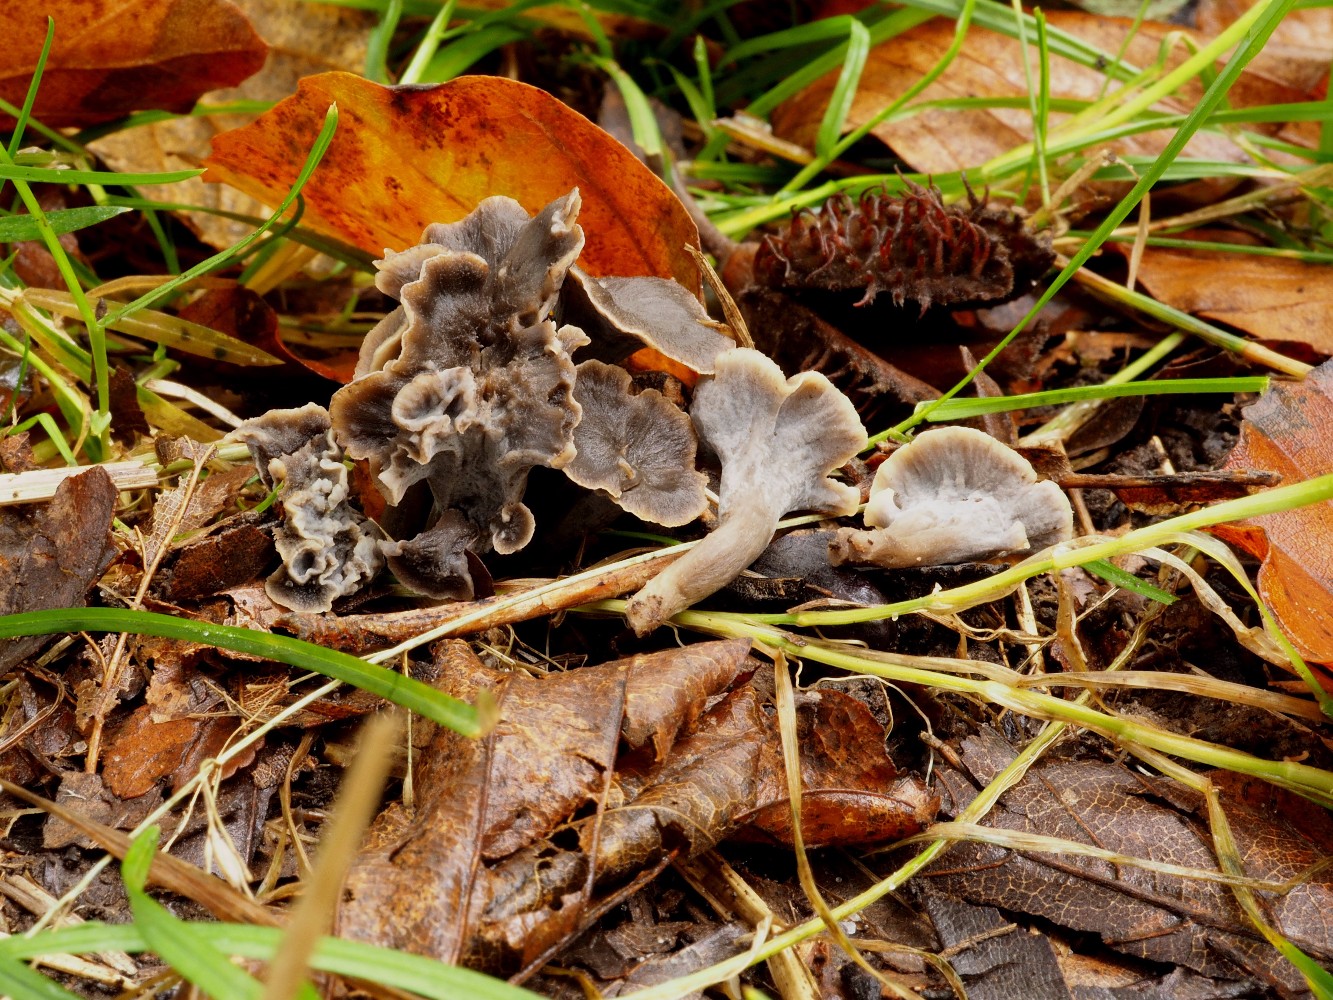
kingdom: Fungi
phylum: Basidiomycota
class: Agaricomycetes
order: Cantharellales
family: Hydnaceae
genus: Craterellus
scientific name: Craterellus undulatus
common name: liden kantarel
